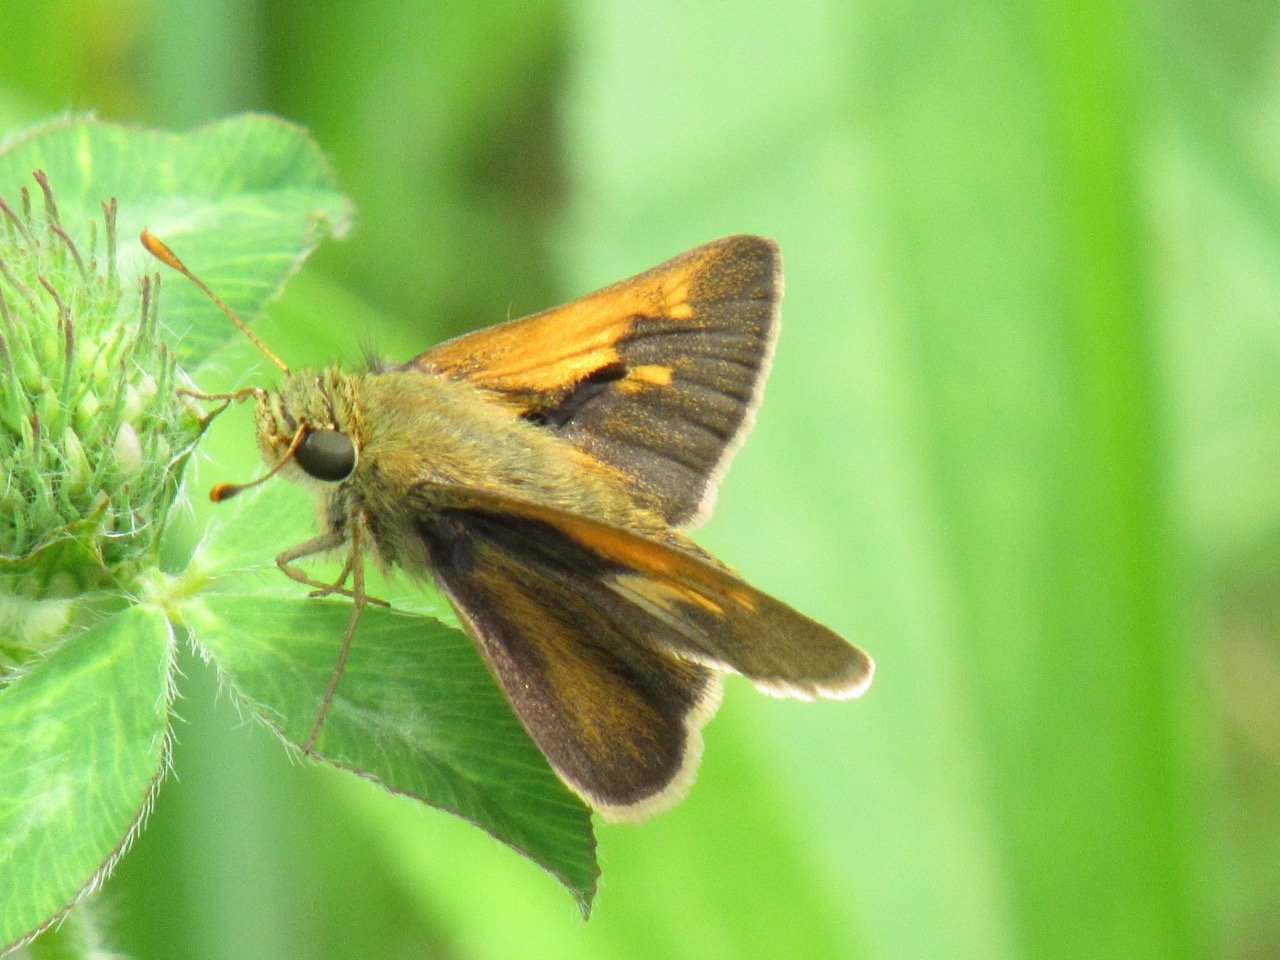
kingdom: Animalia
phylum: Arthropoda
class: Insecta
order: Lepidoptera
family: Hesperiidae
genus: Polites
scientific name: Polites themistocles
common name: Tawny-edged Skipper
